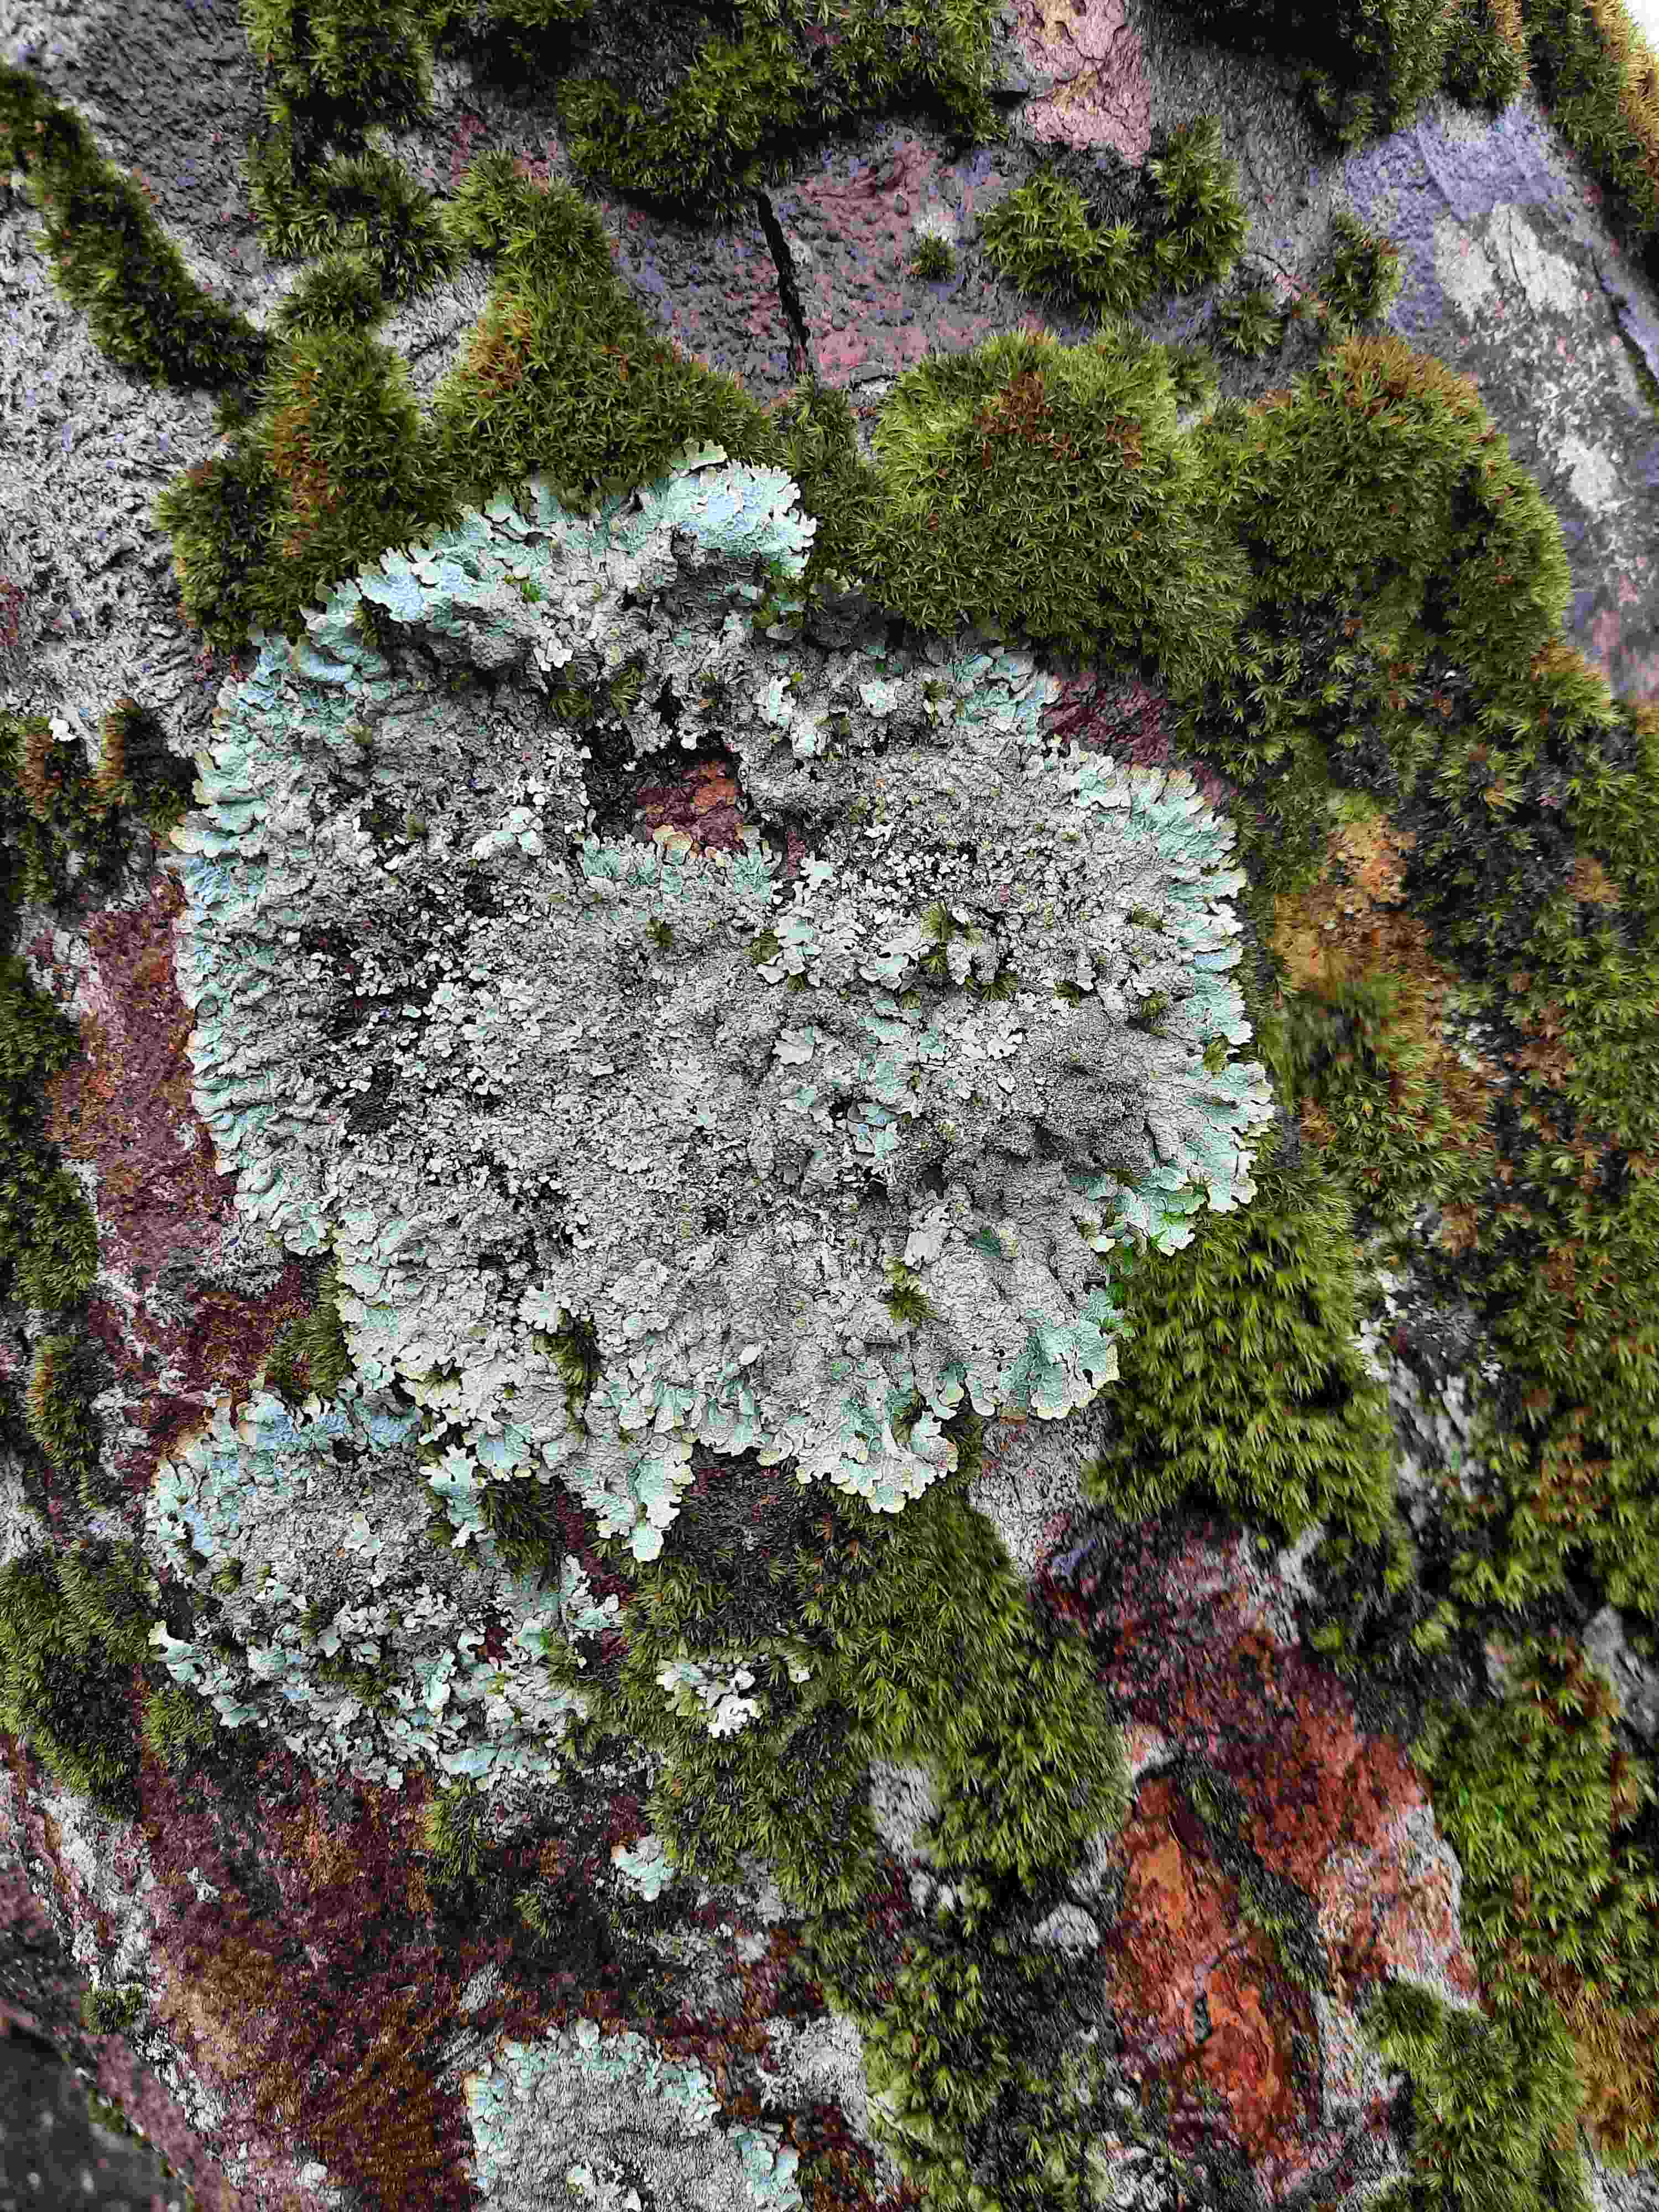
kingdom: Fungi
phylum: Ascomycota
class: Lecanoromycetes
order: Lecanorales
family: Parmeliaceae
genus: Parmelia
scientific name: Parmelia sulcata
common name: rynket skållav
